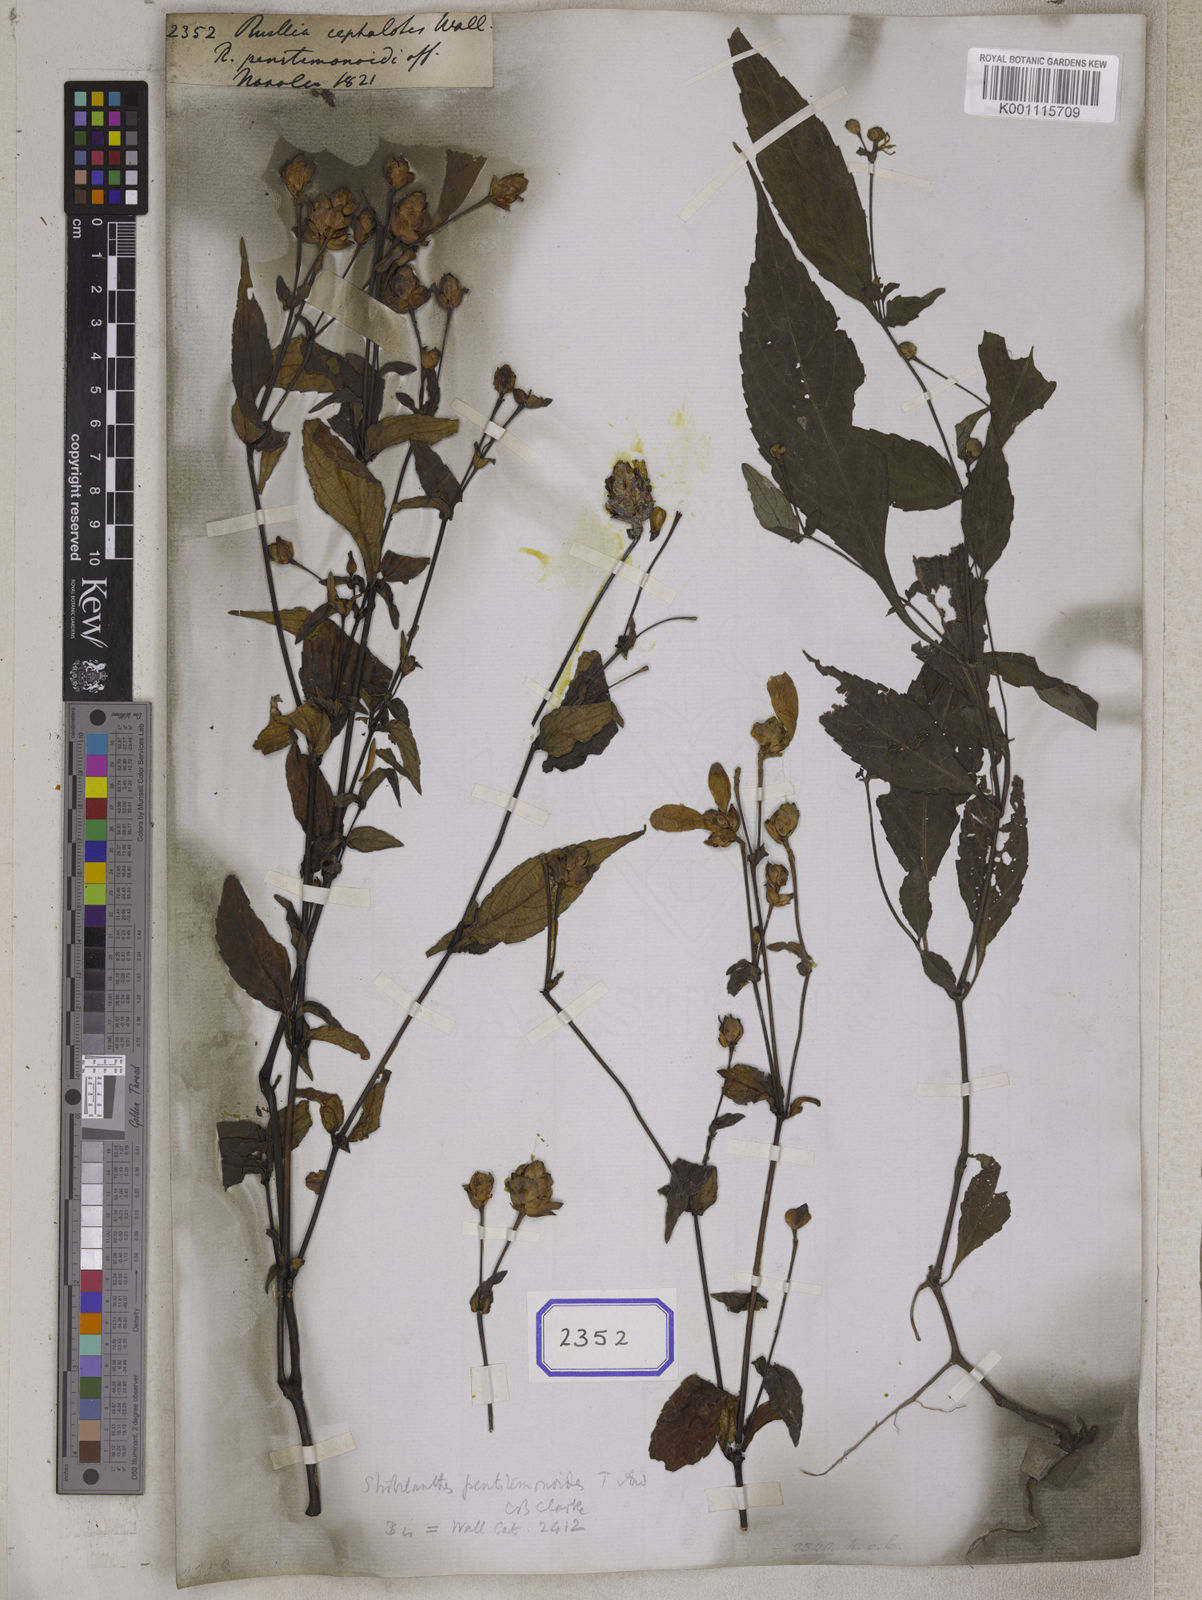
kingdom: Plantae
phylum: Tracheophyta
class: Magnoliopsida
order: Lamiales
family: Acanthaceae
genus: Strobilanthes
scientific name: Strobilanthes pentastemonoides
